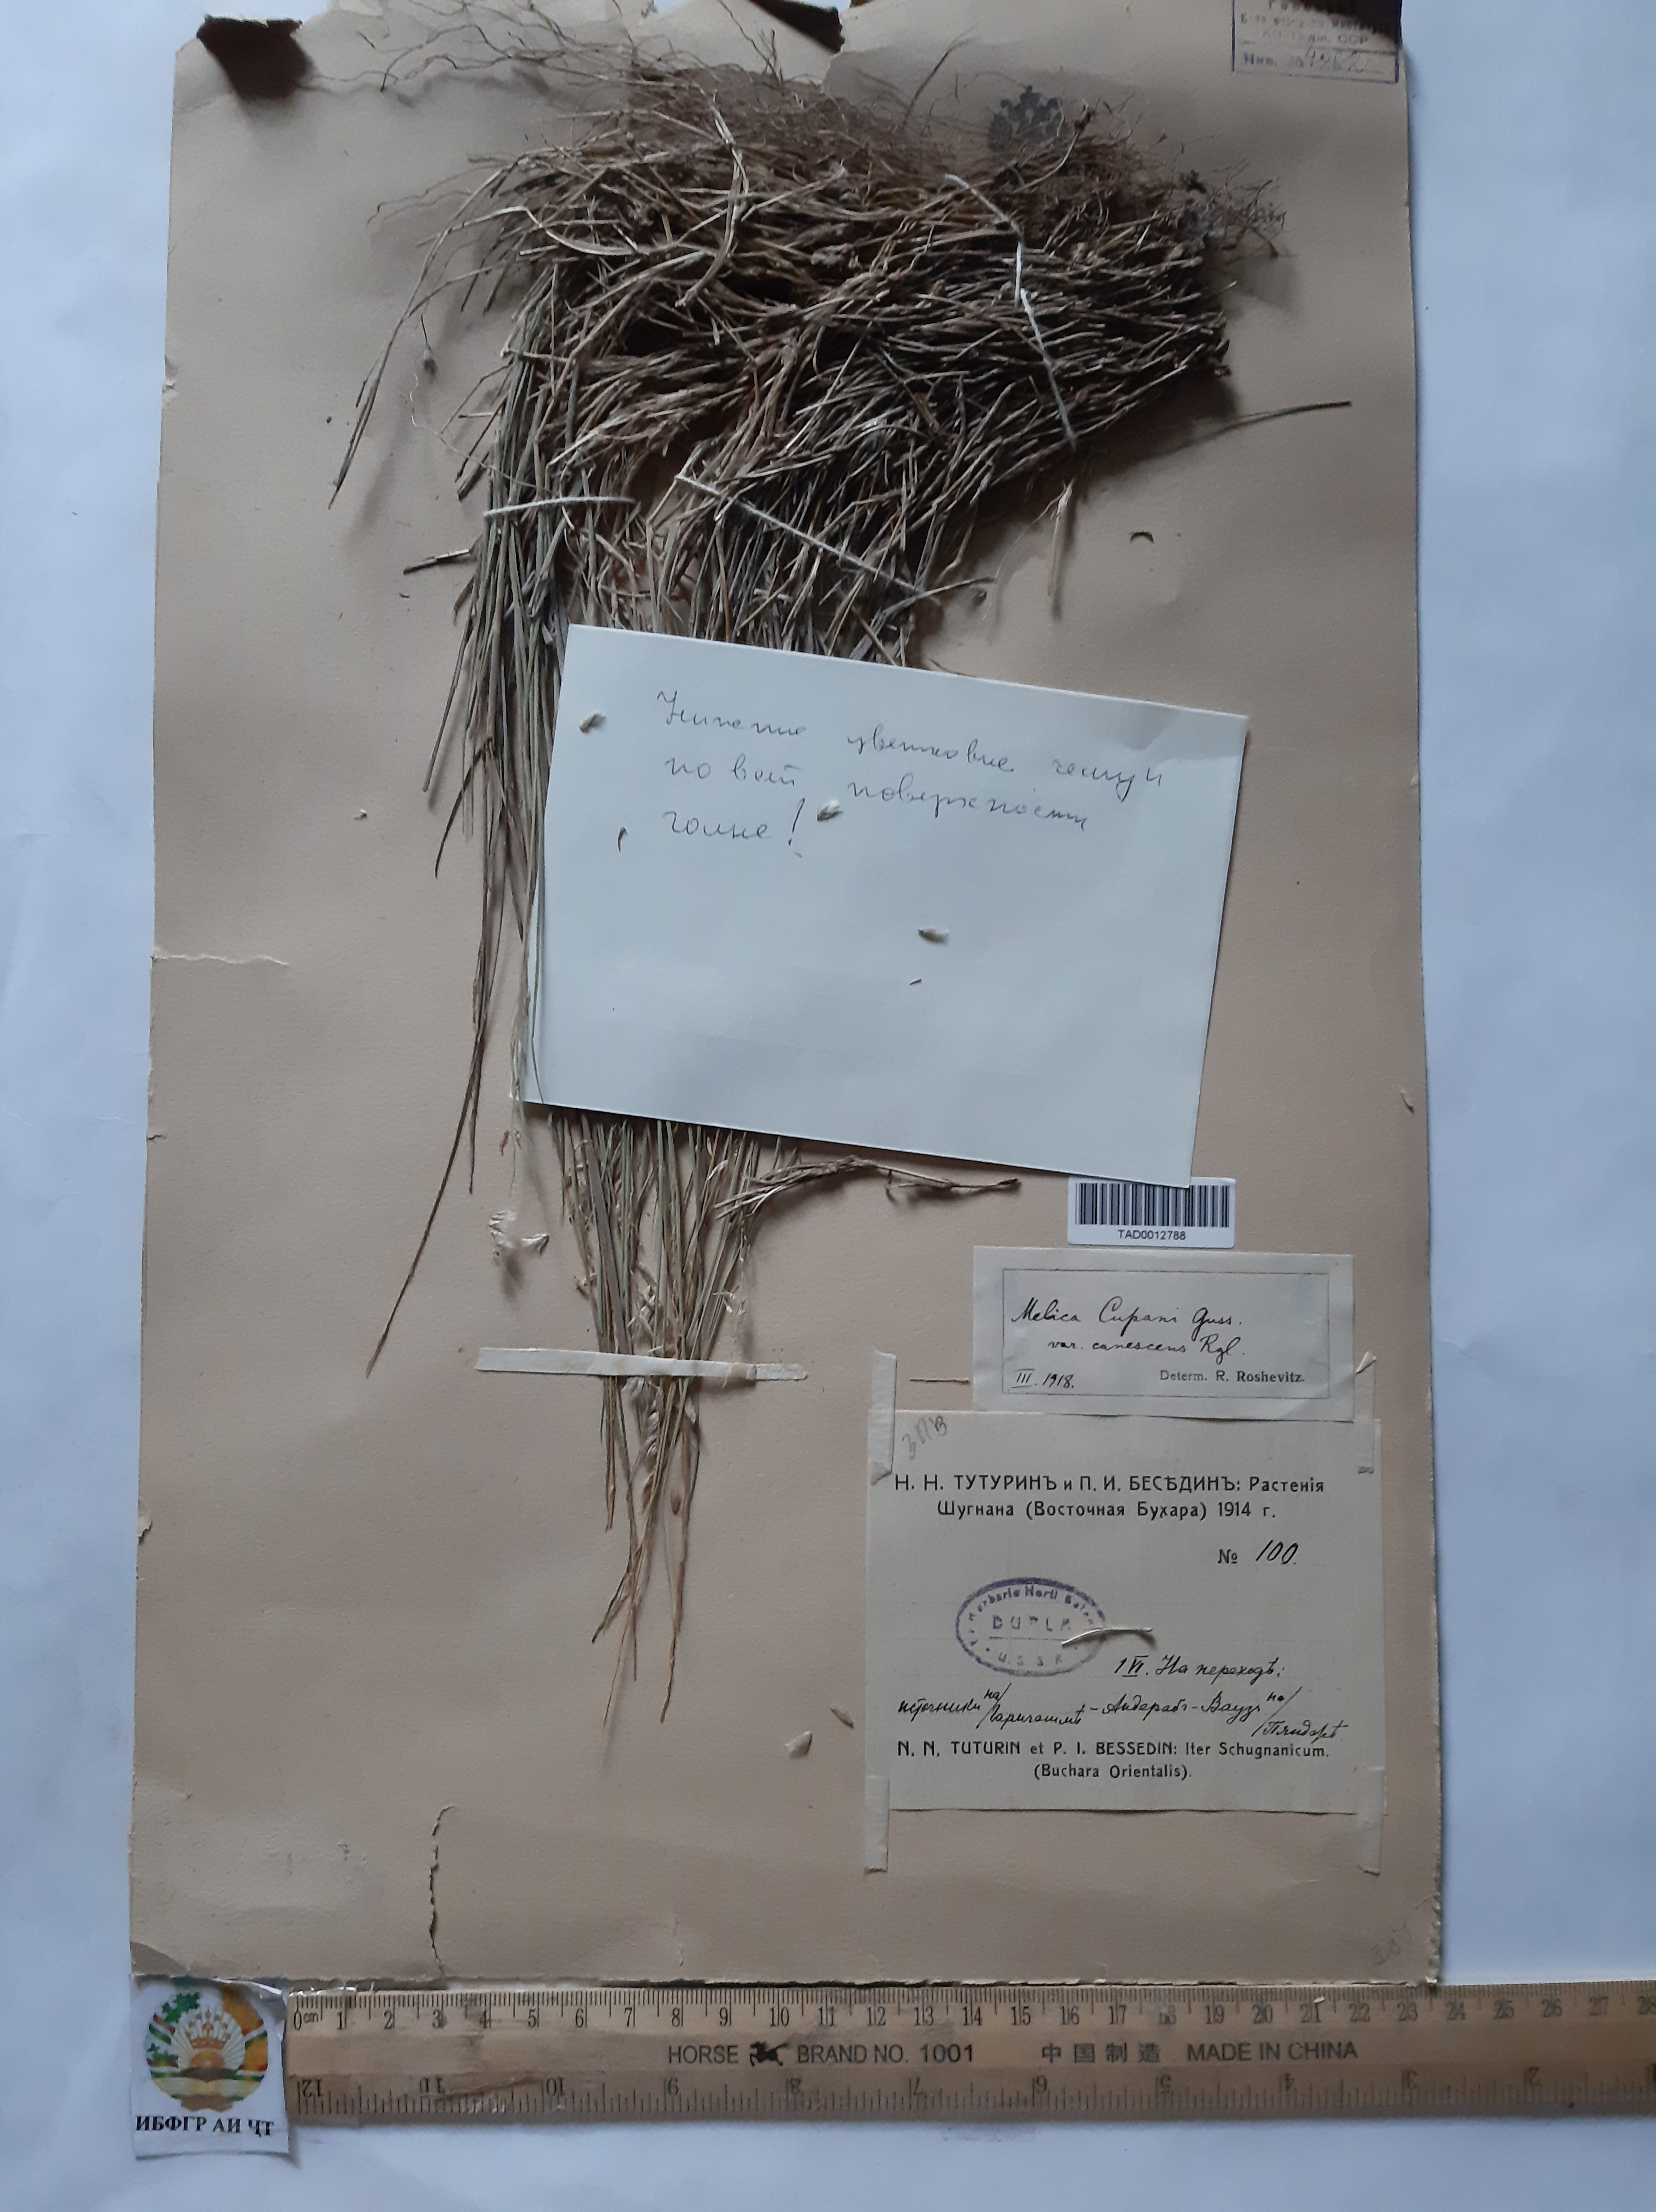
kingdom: Plantae
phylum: Tracheophyta
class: Liliopsida
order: Poales
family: Poaceae
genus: Melica
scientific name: Melica cupani
